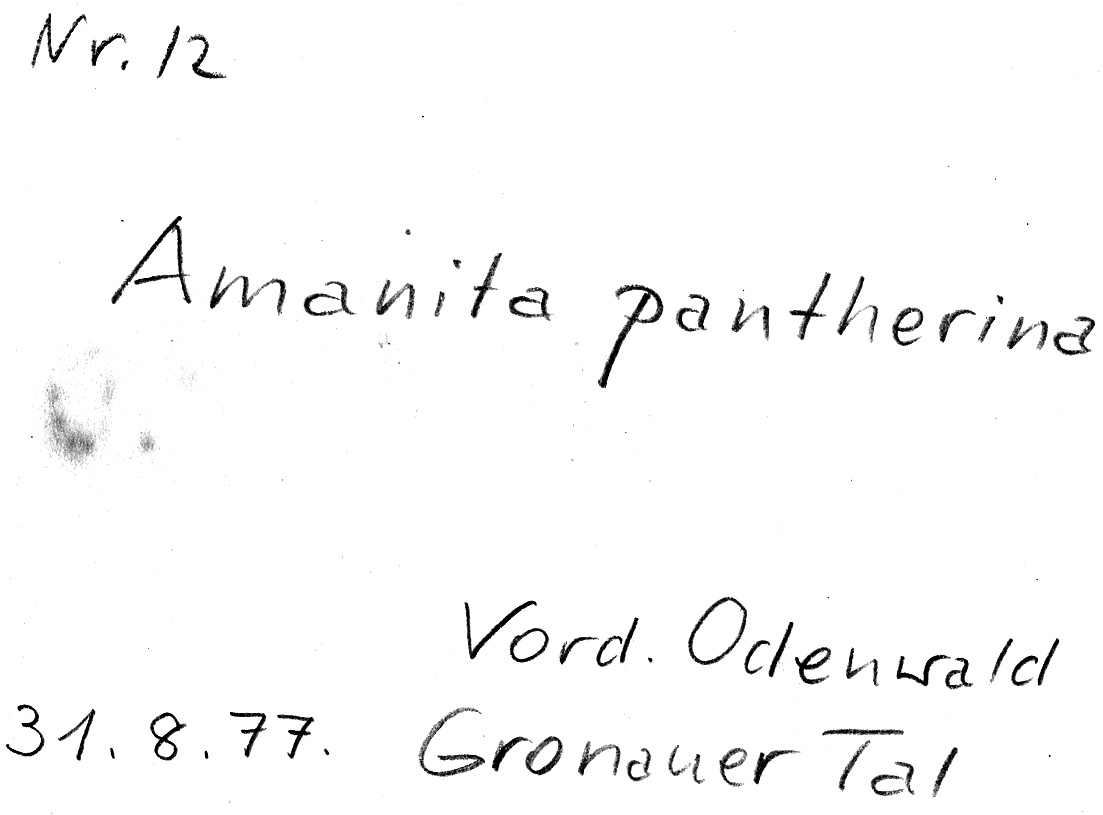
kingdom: Fungi
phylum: Basidiomycota
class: Agaricomycetes
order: Agaricales
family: Amanitaceae
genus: Amanita
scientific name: Amanita pantherina
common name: Panthercap
